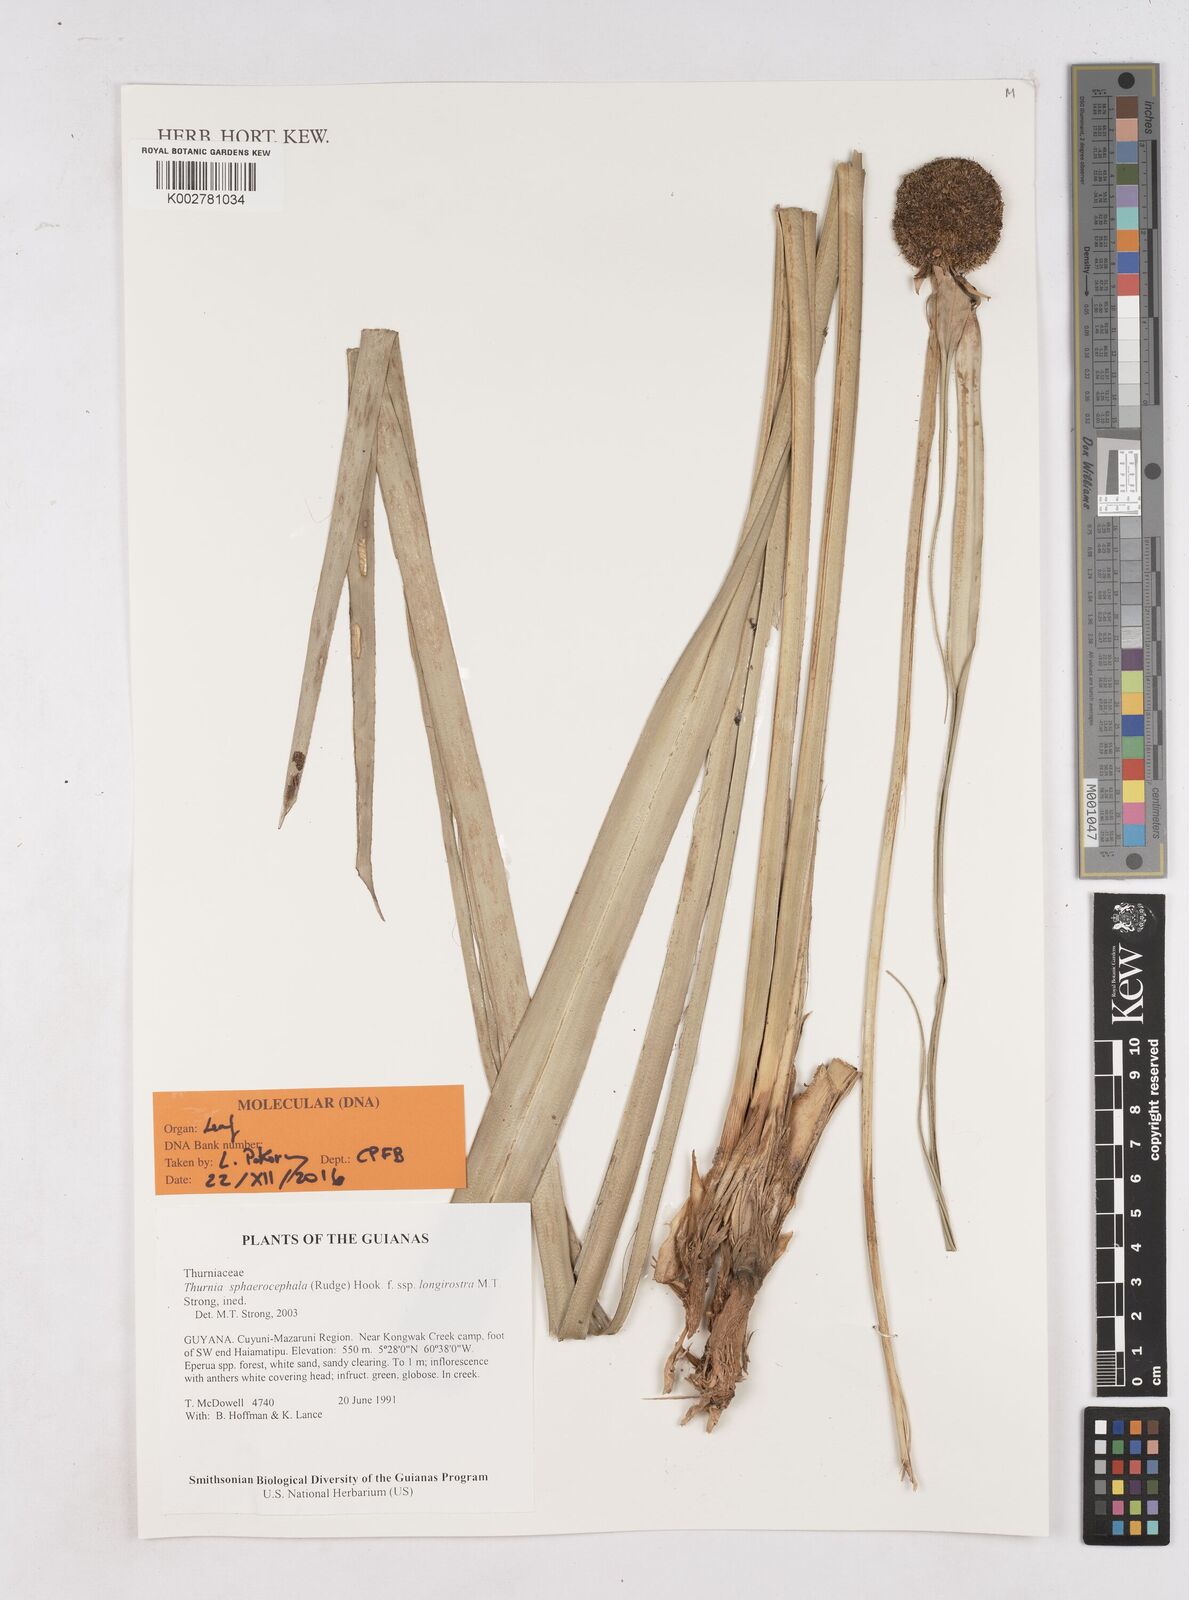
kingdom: Plantae
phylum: Tracheophyta
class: Liliopsida
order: Poales
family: Thurniaceae
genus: Thurnia
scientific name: Thurnia sphaerocephala
